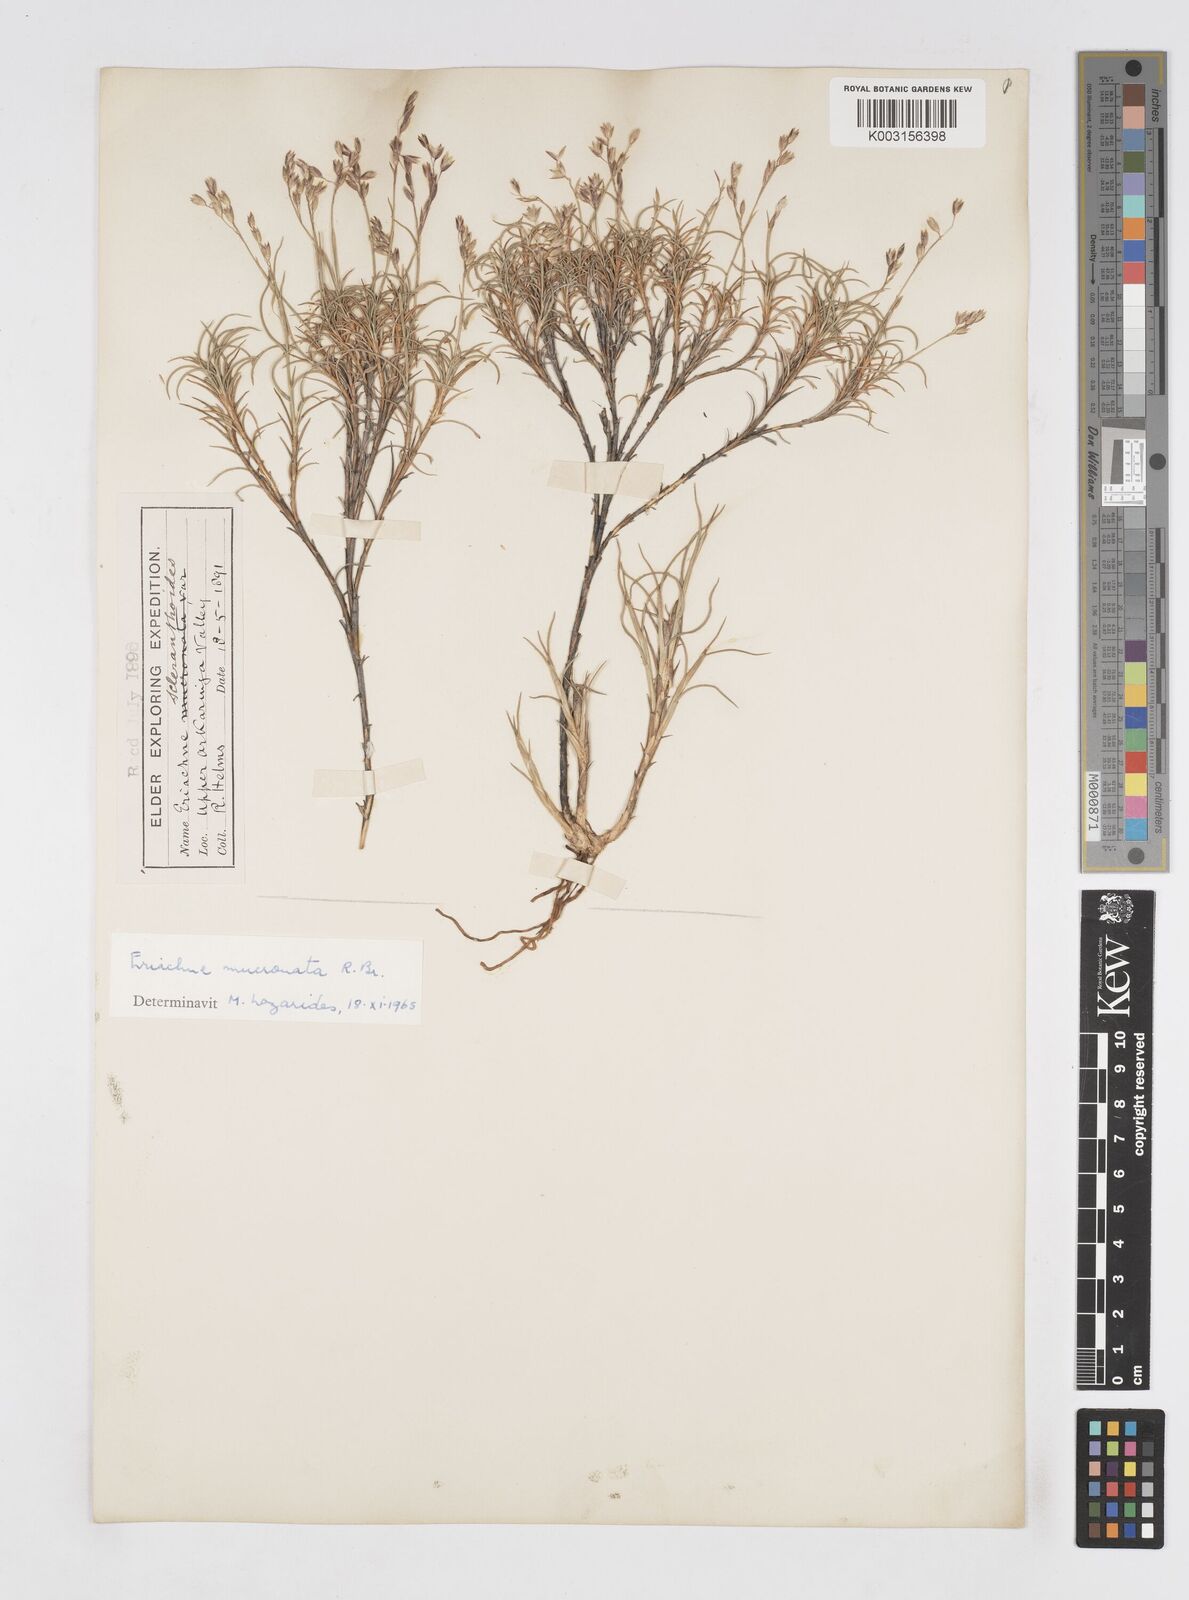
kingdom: Plantae
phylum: Tracheophyta
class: Liliopsida
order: Poales
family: Poaceae
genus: Eriachne
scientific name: Eriachne mucronata
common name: Mountain wanderrie grass
